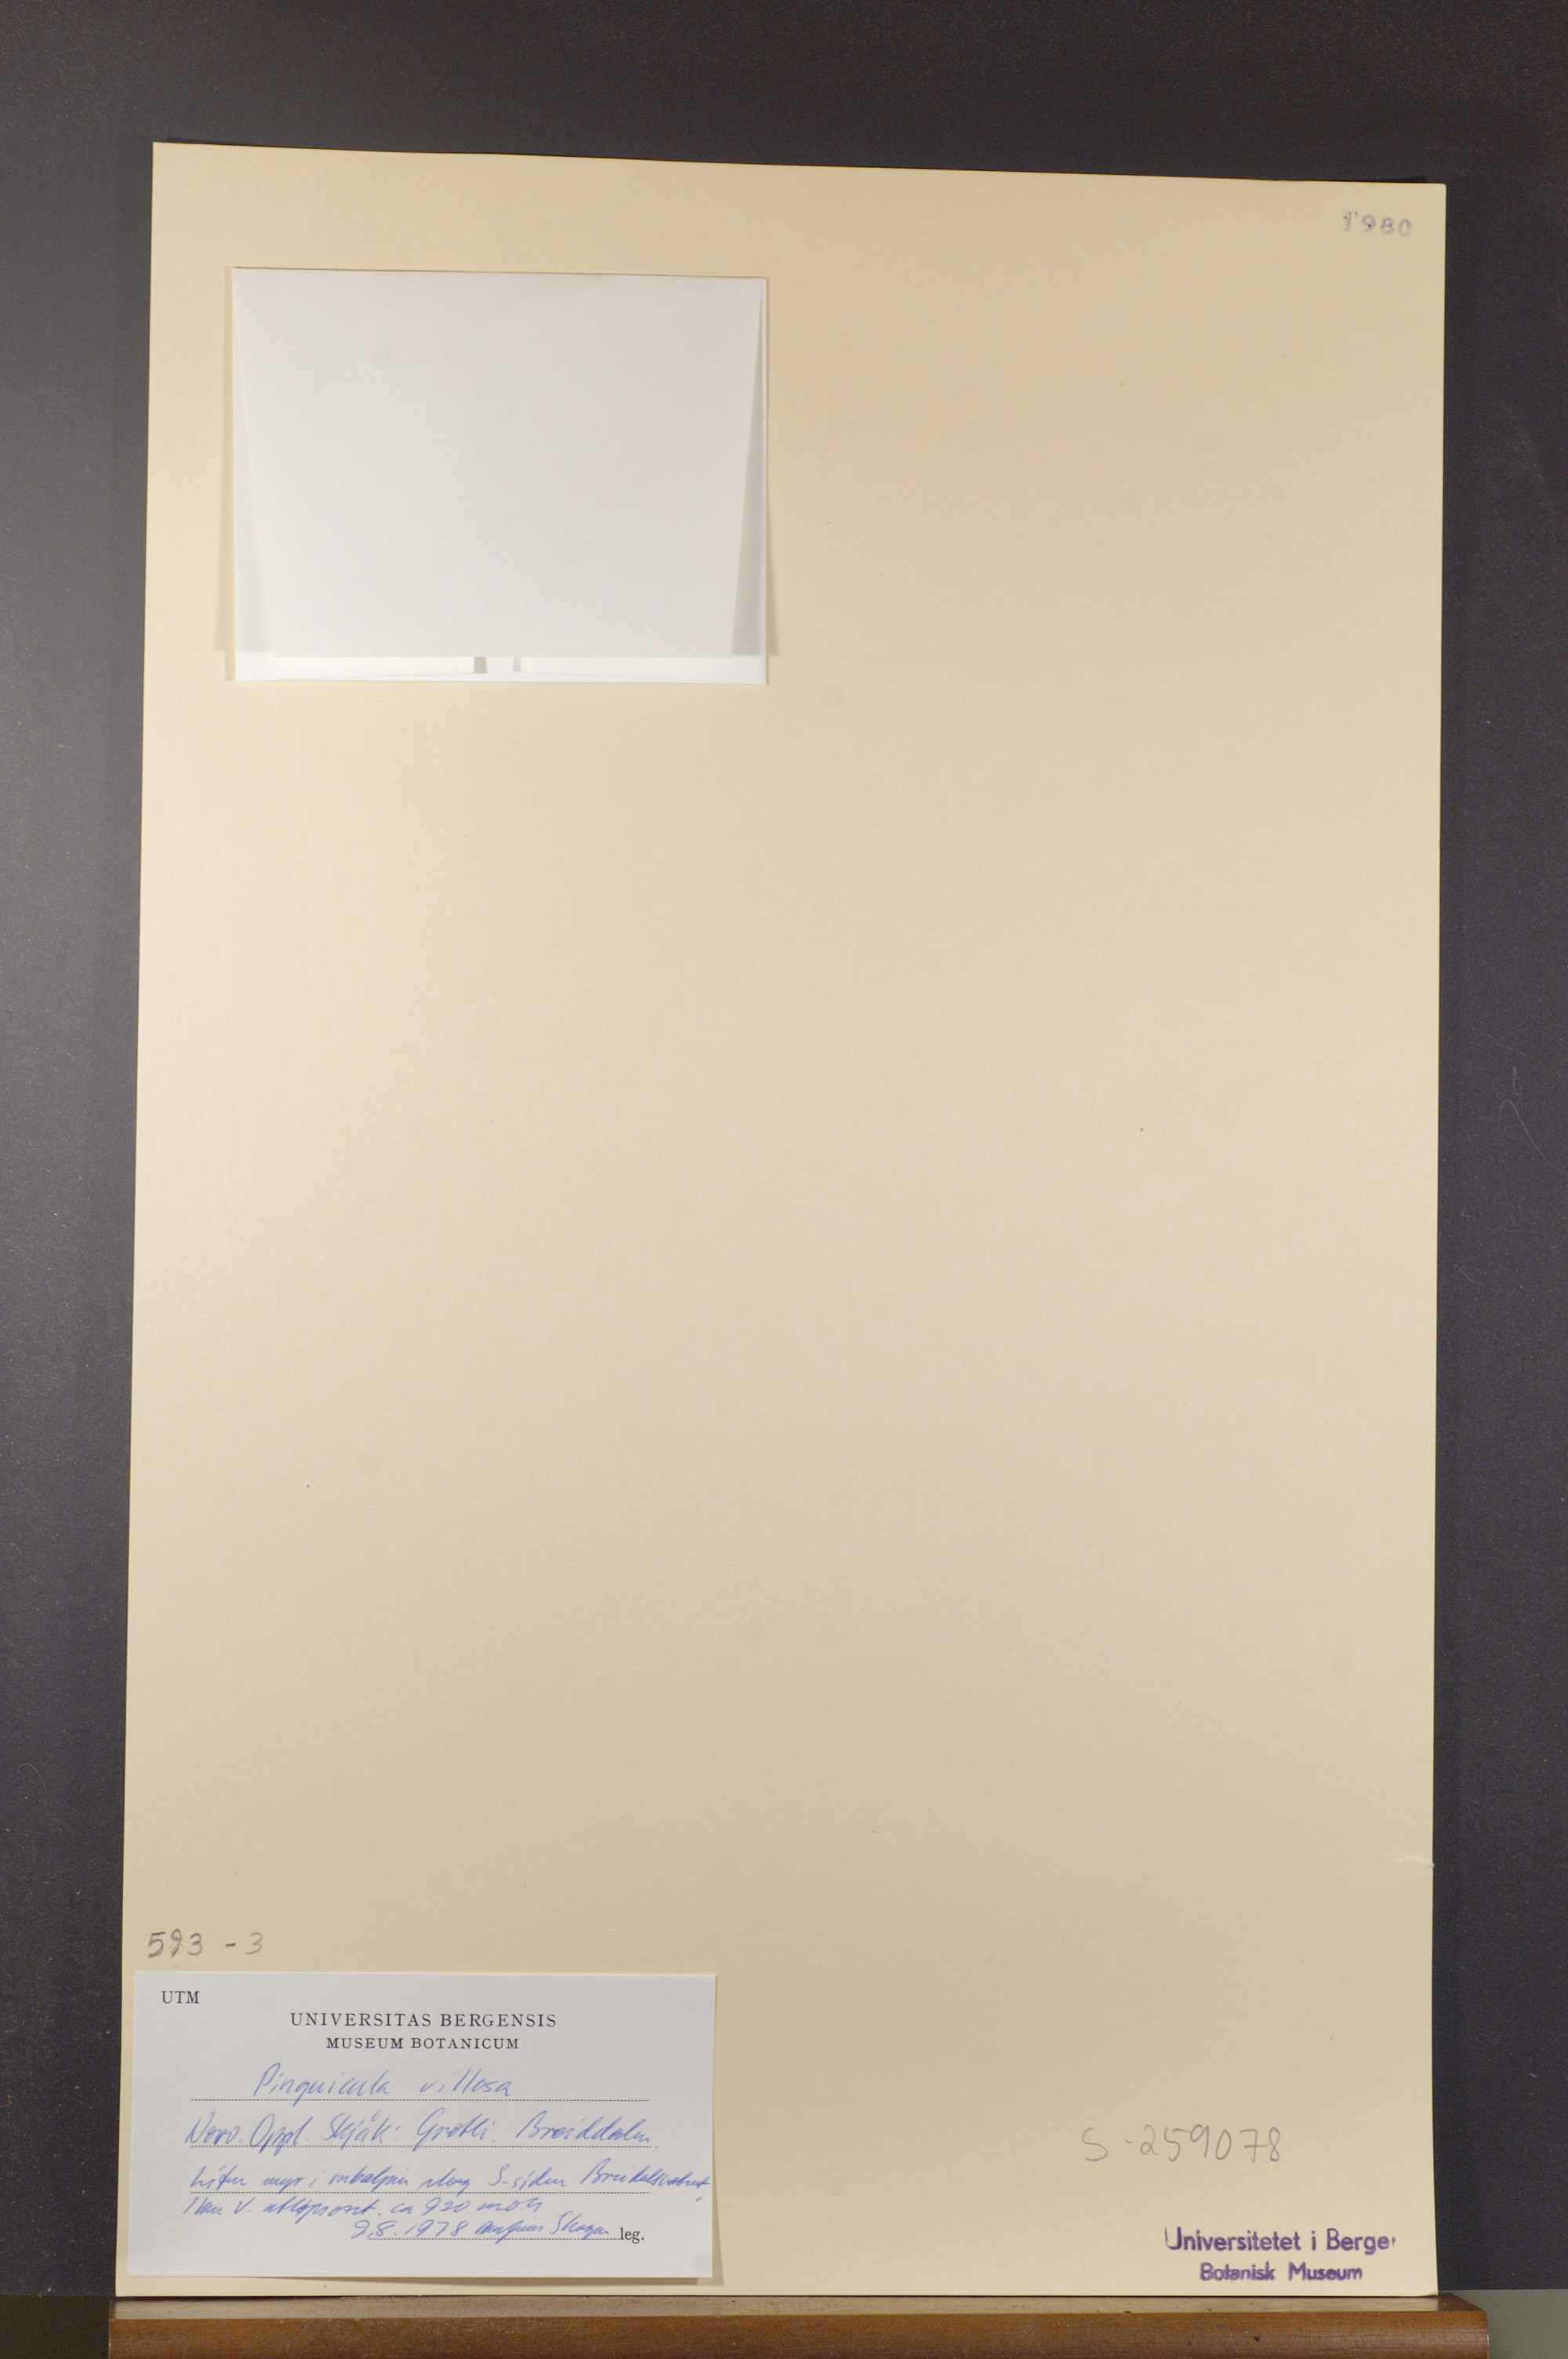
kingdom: Plantae
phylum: Tracheophyta
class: Magnoliopsida
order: Lamiales
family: Lentibulariaceae
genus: Pinguicula
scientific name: Pinguicula villosa
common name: Hairy butterwort
